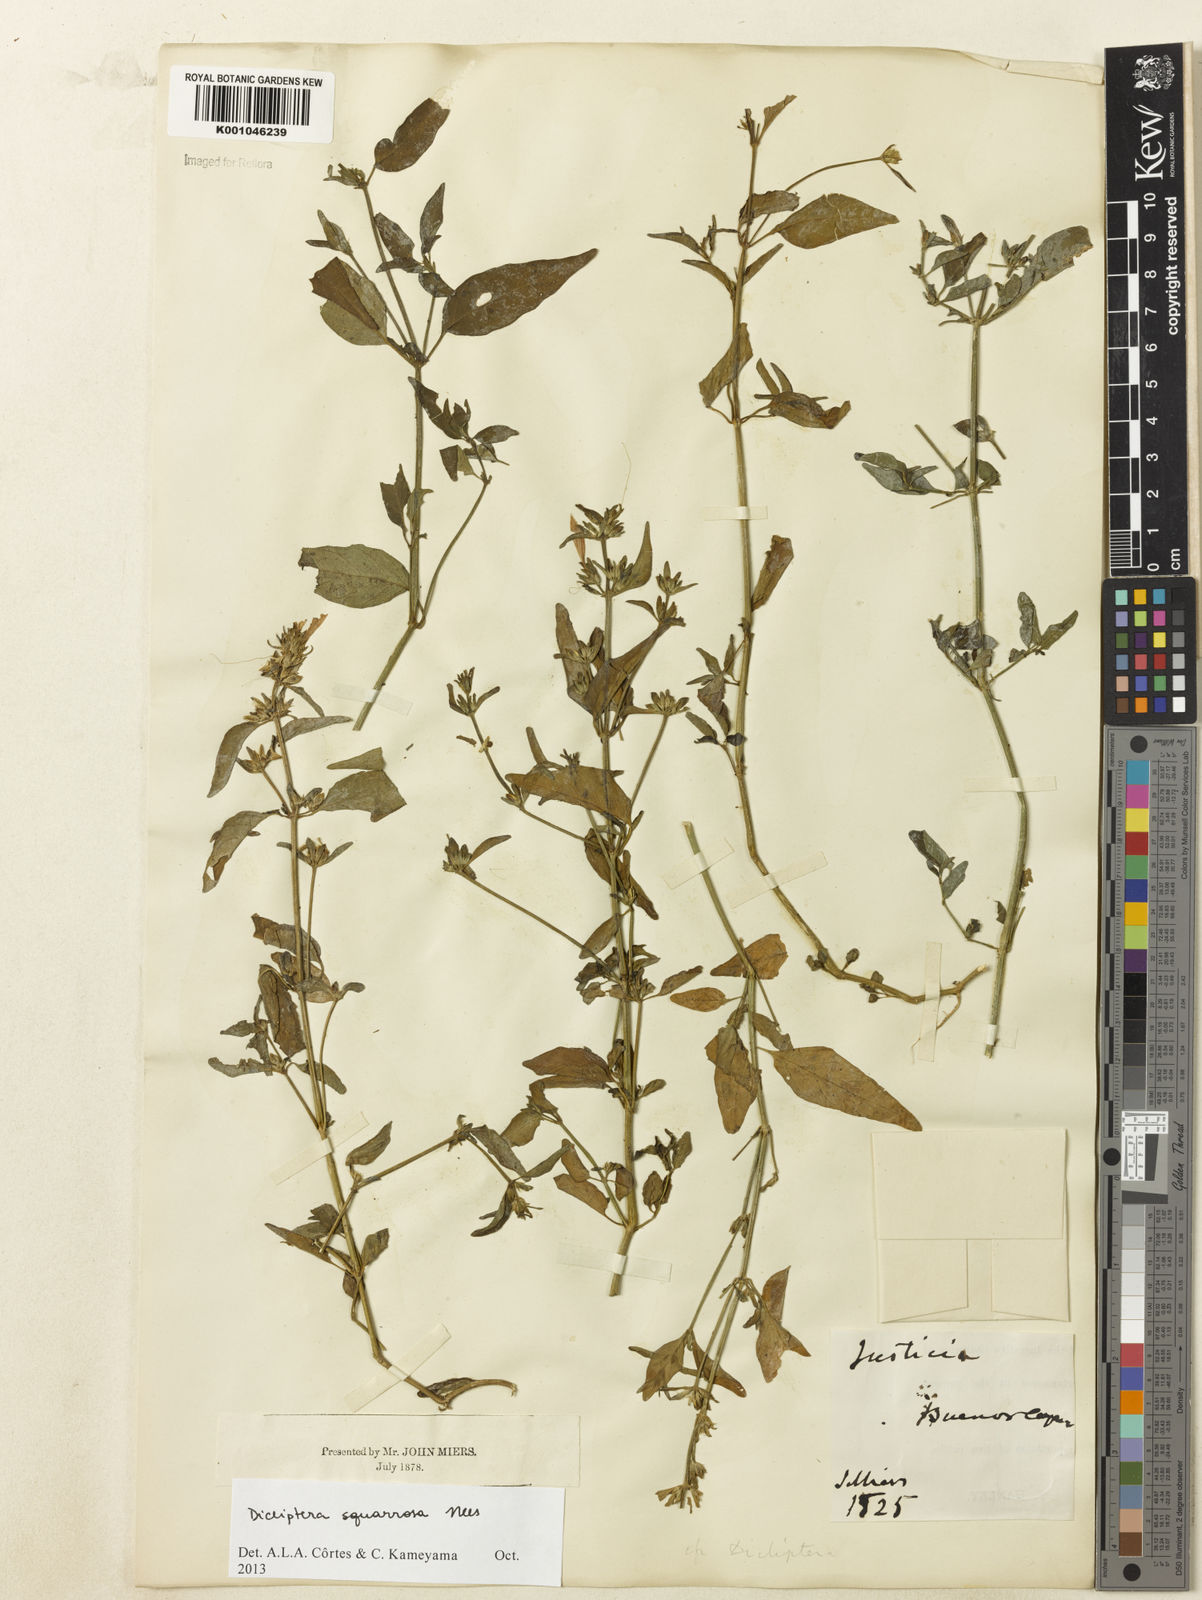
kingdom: Plantae
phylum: Tracheophyta
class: Magnoliopsida
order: Lamiales
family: Acanthaceae
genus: Dicliptera
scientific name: Dicliptera squarrosa
